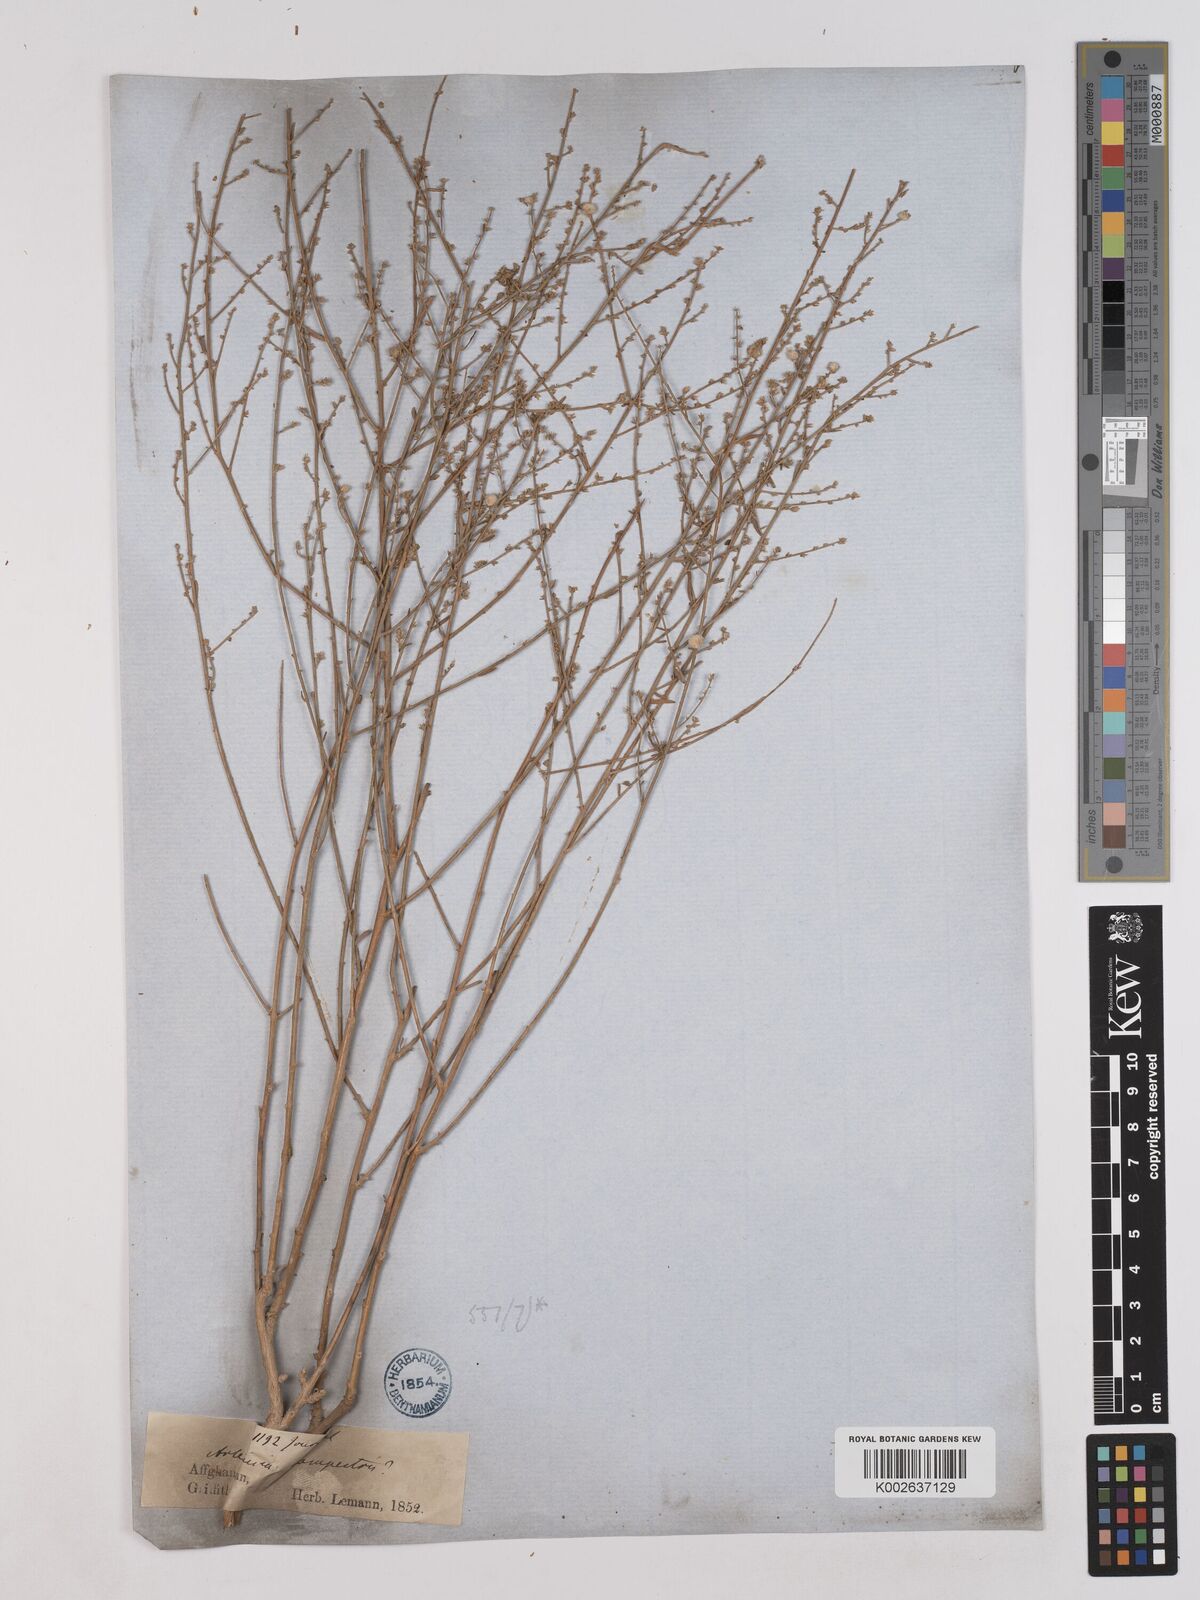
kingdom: Plantae
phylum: Tracheophyta
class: Magnoliopsida
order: Asterales
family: Asteraceae
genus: Artemisia
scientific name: Artemisia campestris
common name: Field wormwood
